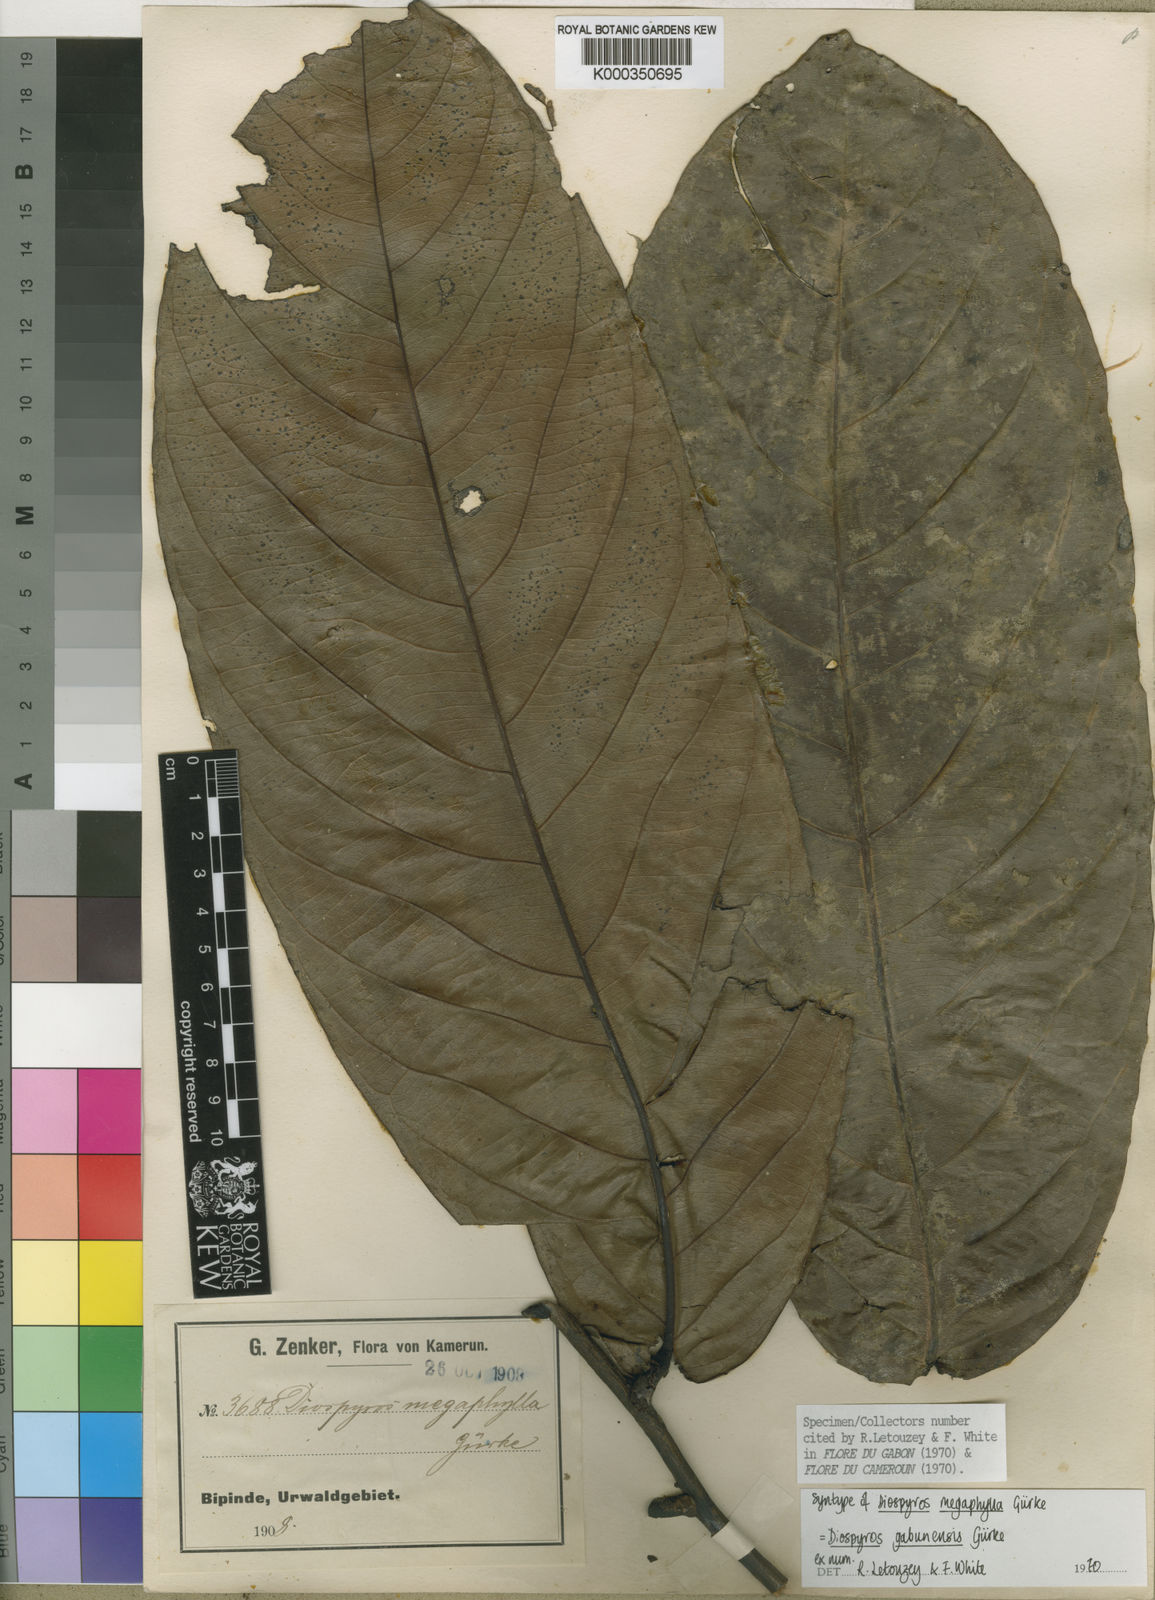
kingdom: Plantae
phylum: Tracheophyta
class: Magnoliopsida
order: Ericales
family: Ebenaceae
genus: Diospyros
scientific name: Diospyros
